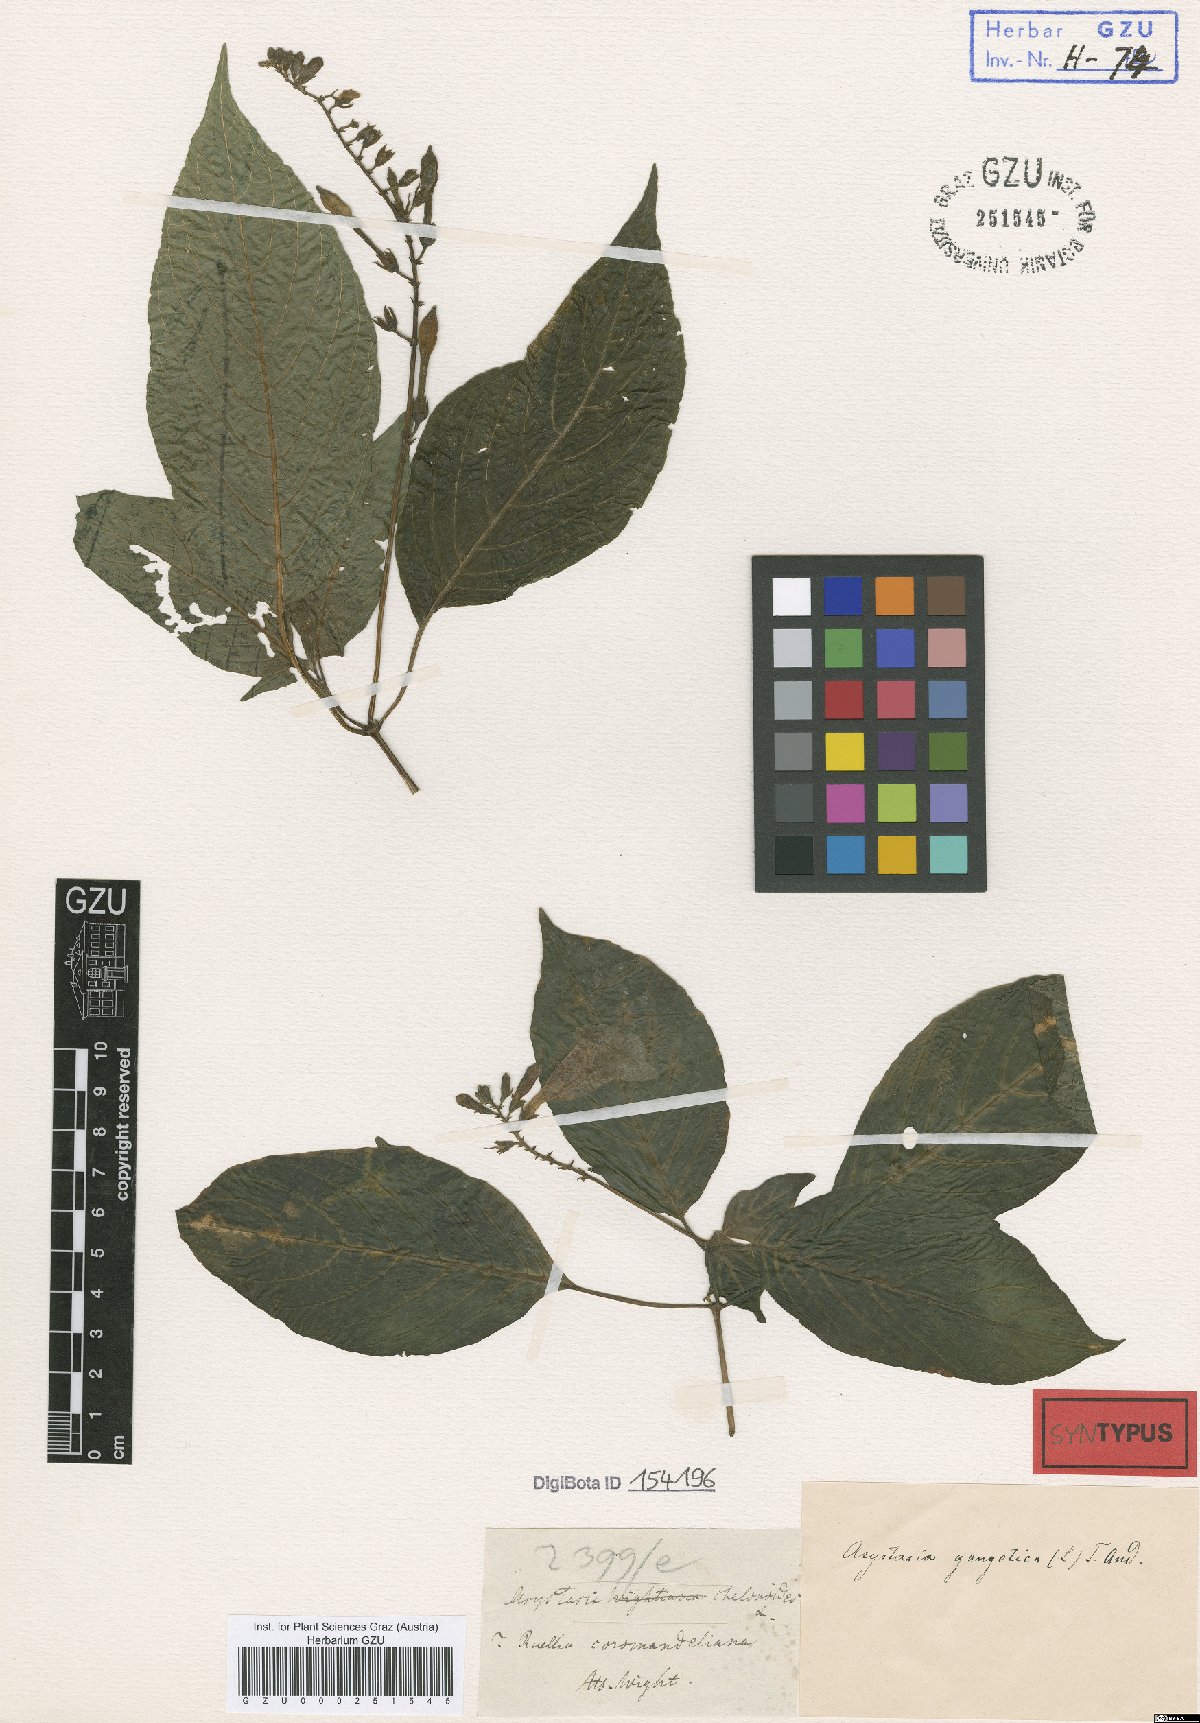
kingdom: Plantae
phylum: Tracheophyta
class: Magnoliopsida
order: Lamiales
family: Acanthaceae
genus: Asystasia
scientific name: Asystasia chelonoides
